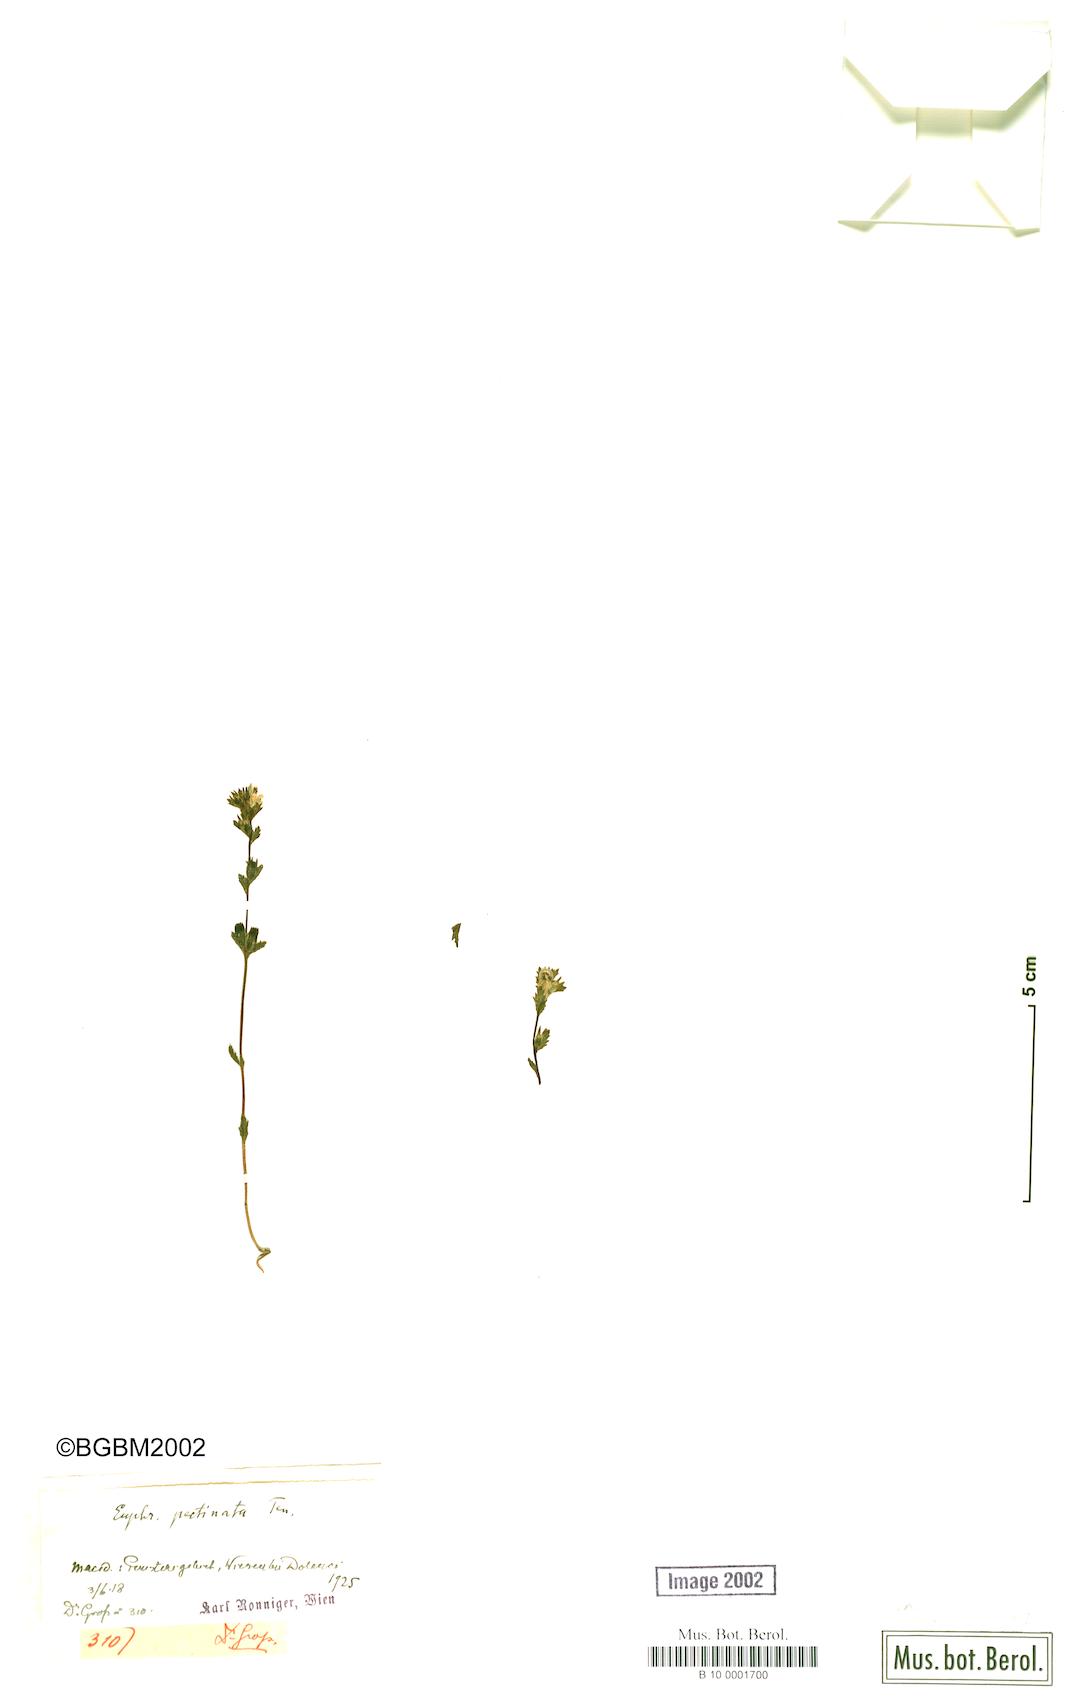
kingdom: Plantae
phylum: Tracheophyta
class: Magnoliopsida
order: Lamiales
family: Orobanchaceae
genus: Euphrasia
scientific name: Euphrasia pectinata
